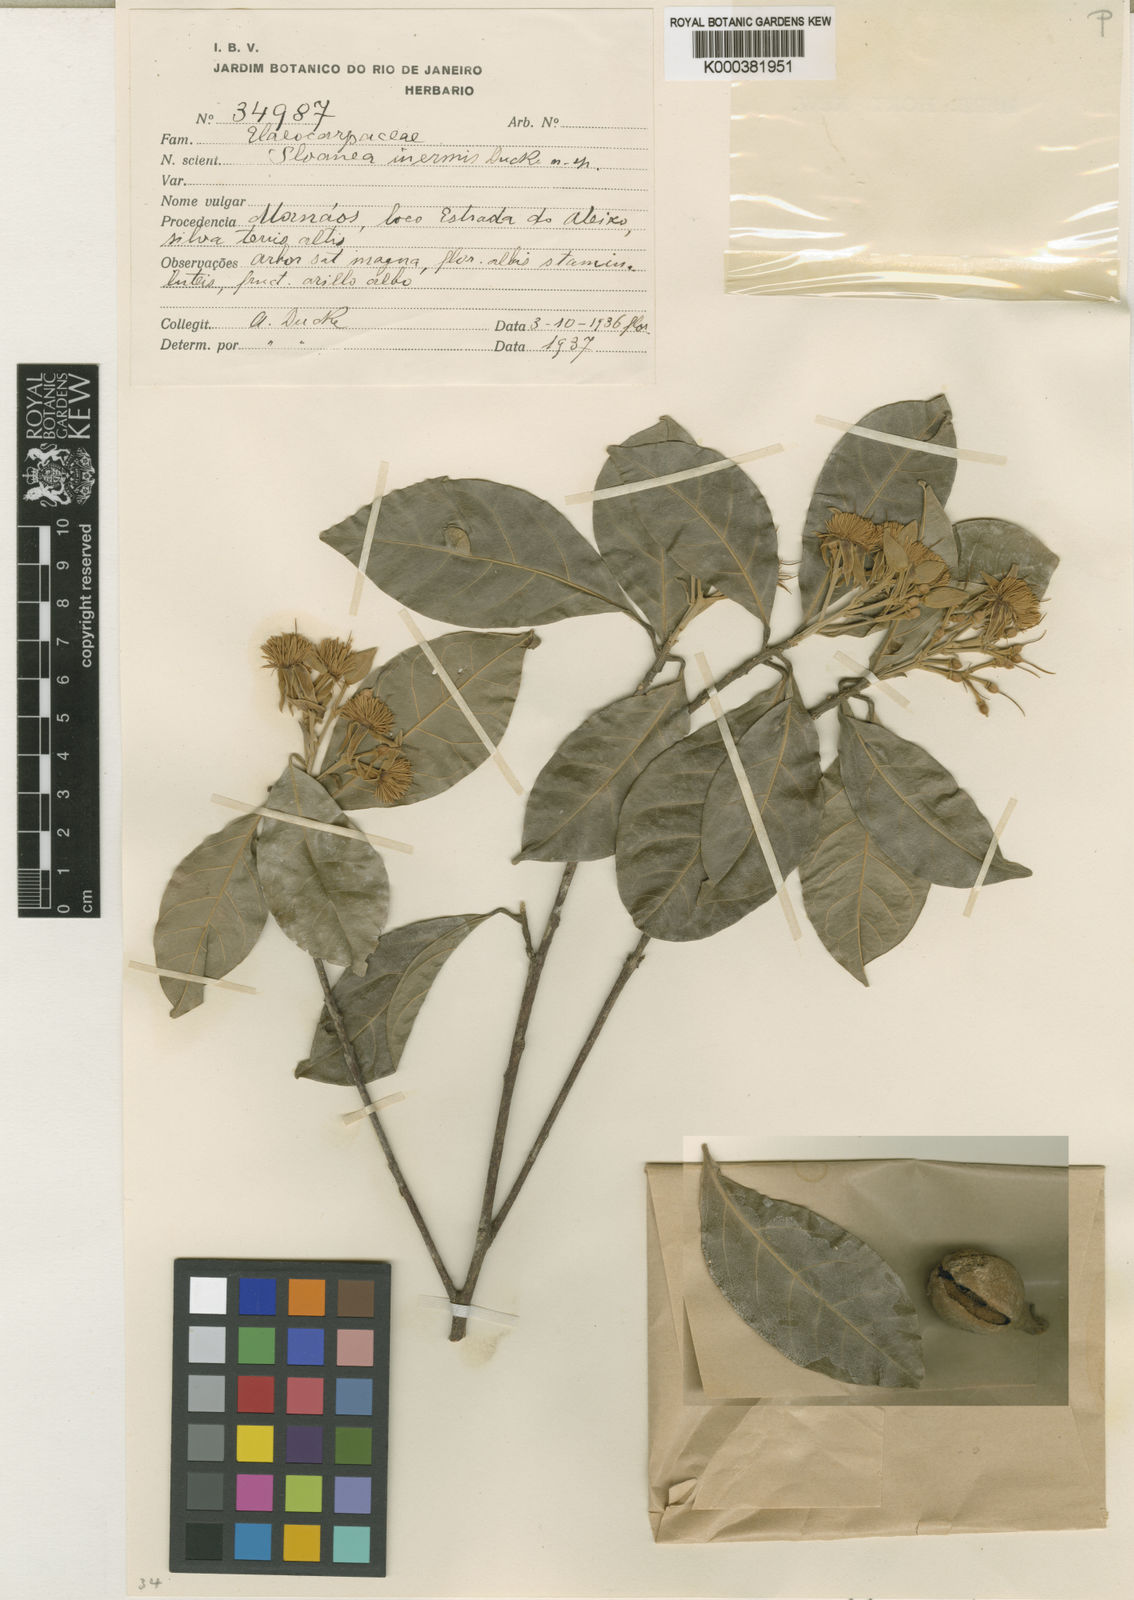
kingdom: Plantae
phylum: Tracheophyta
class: Magnoliopsida
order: Oxalidales
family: Elaeocarpaceae
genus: Sloanea
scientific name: Sloanea latifolia
